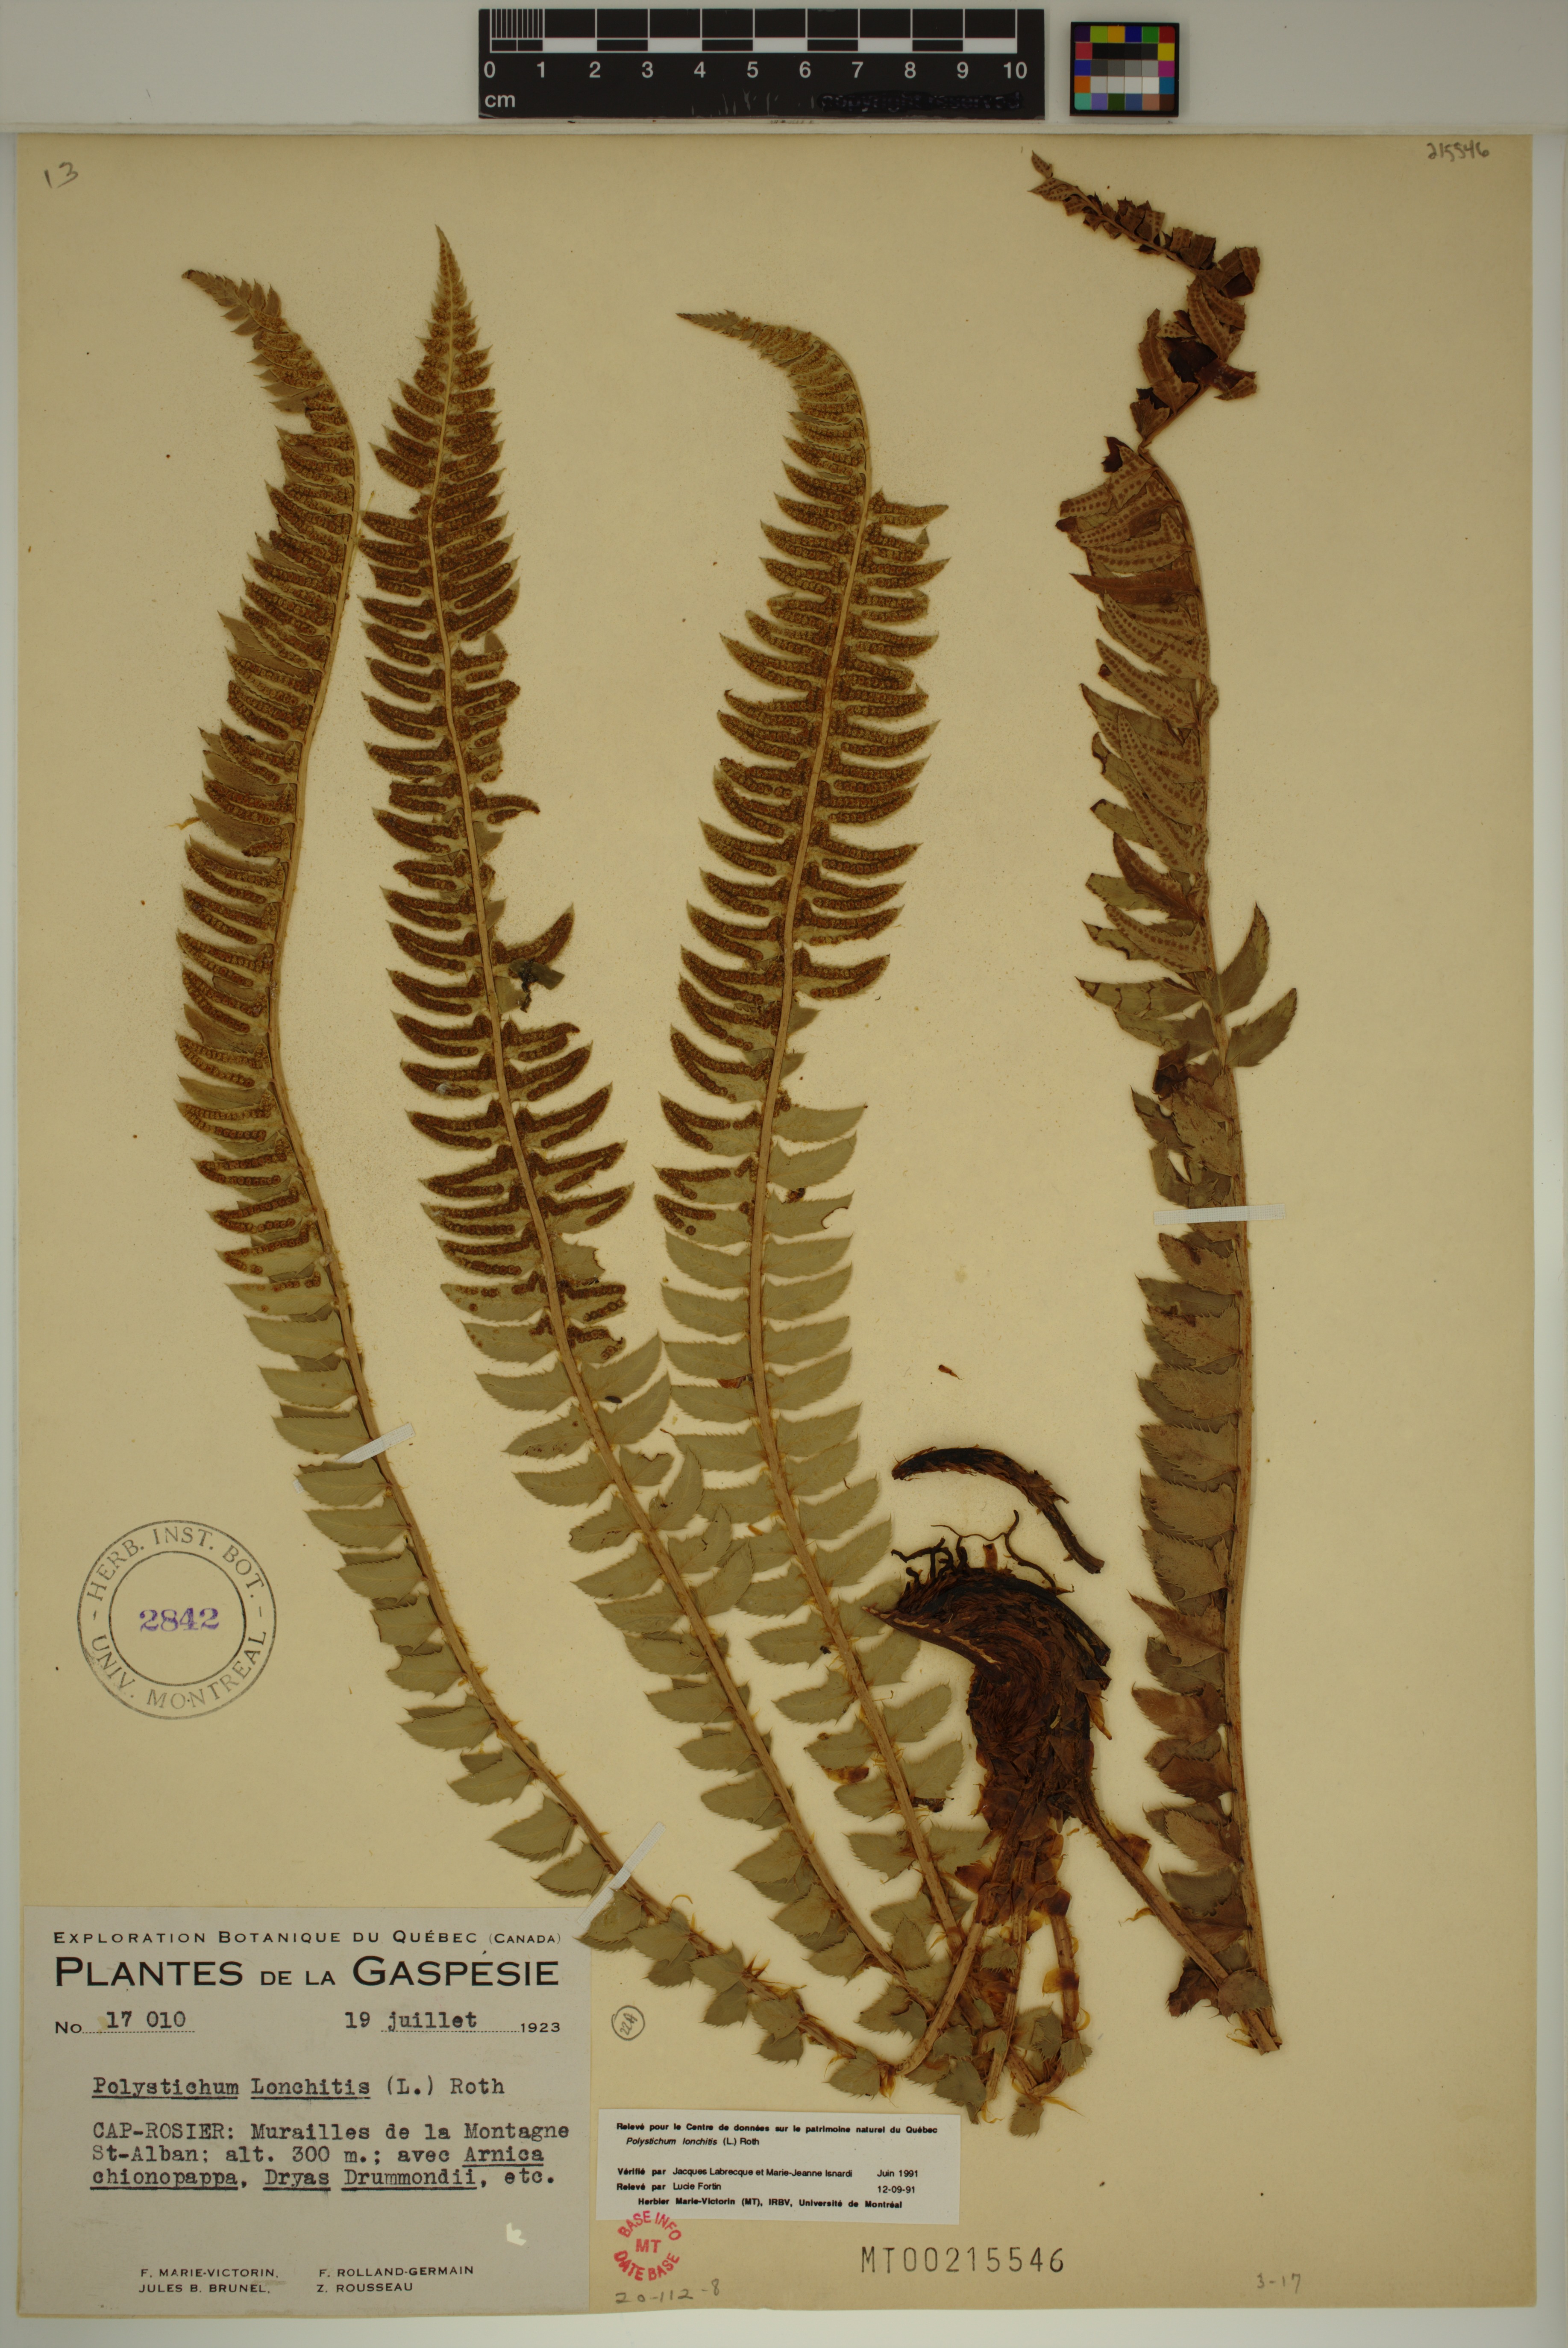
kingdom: Plantae
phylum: Tracheophyta
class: Polypodiopsida
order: Polypodiales
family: Dryopteridaceae
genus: Polystichum
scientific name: Polystichum lonchitis
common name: Holly fern
